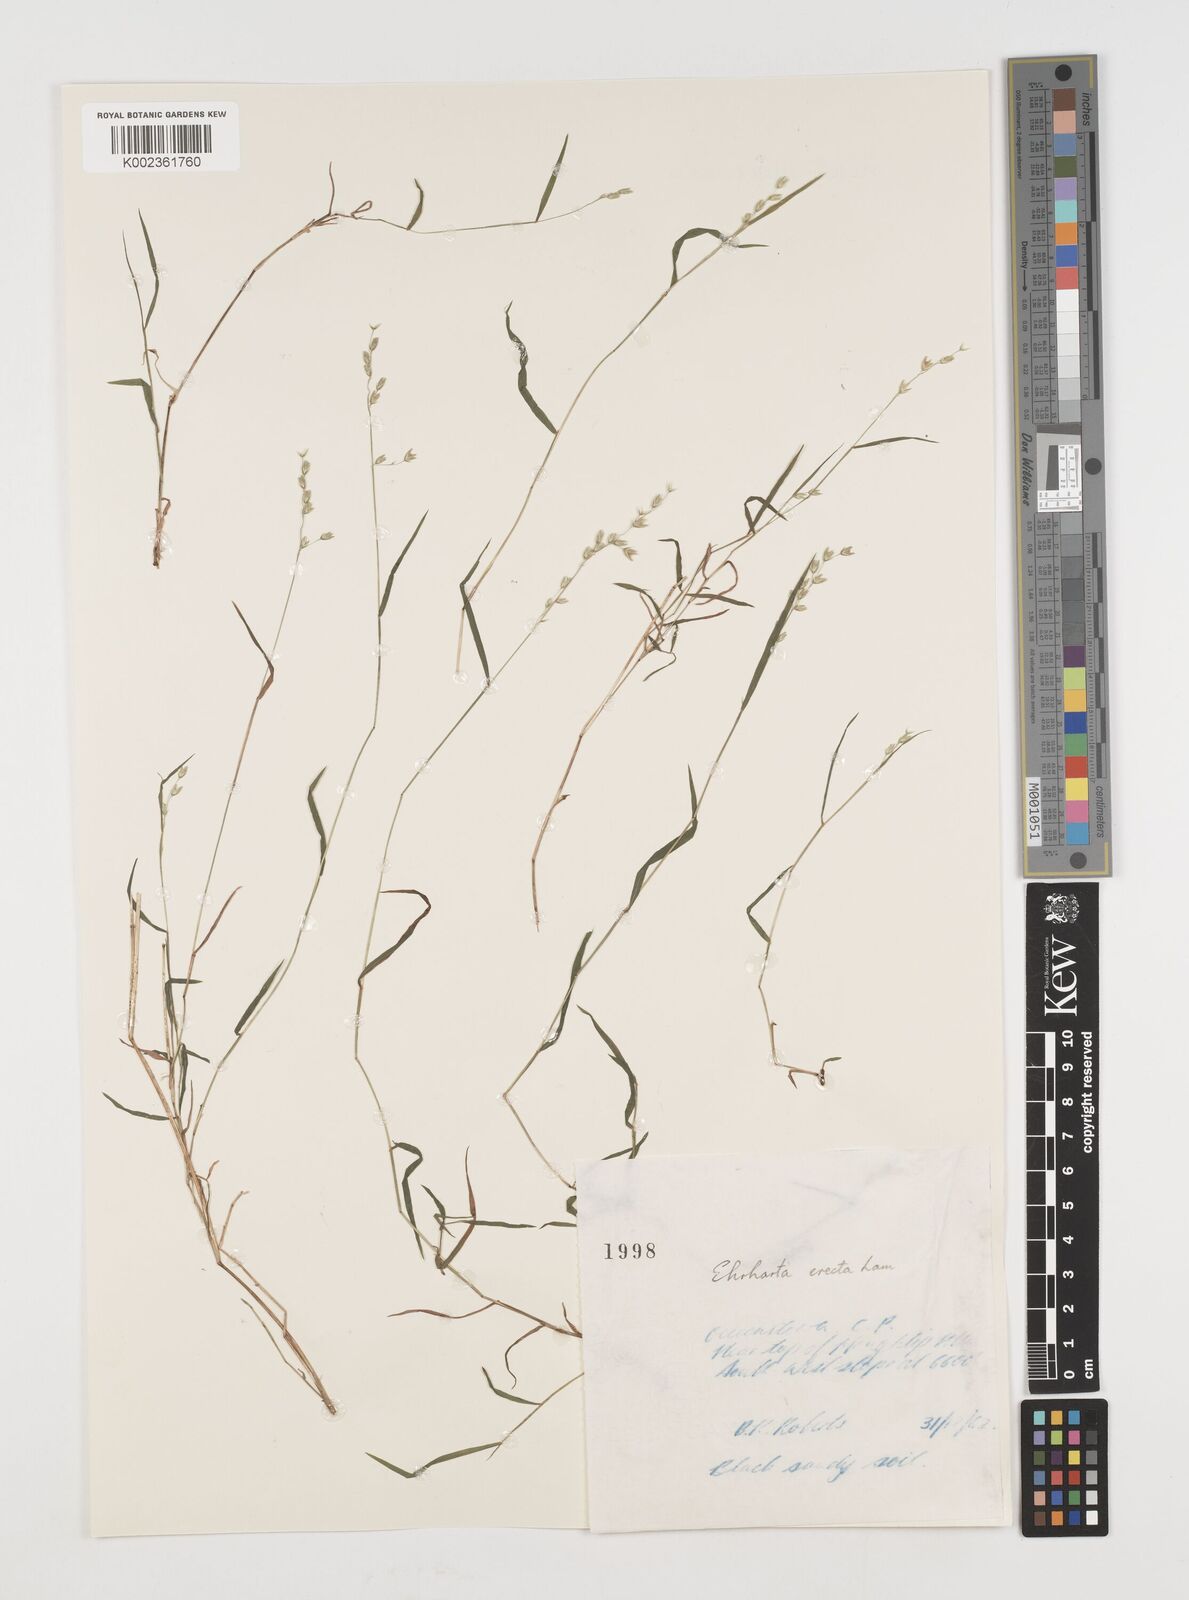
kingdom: Plantae
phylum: Tracheophyta
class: Liliopsida
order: Poales
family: Poaceae
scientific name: Poaceae
